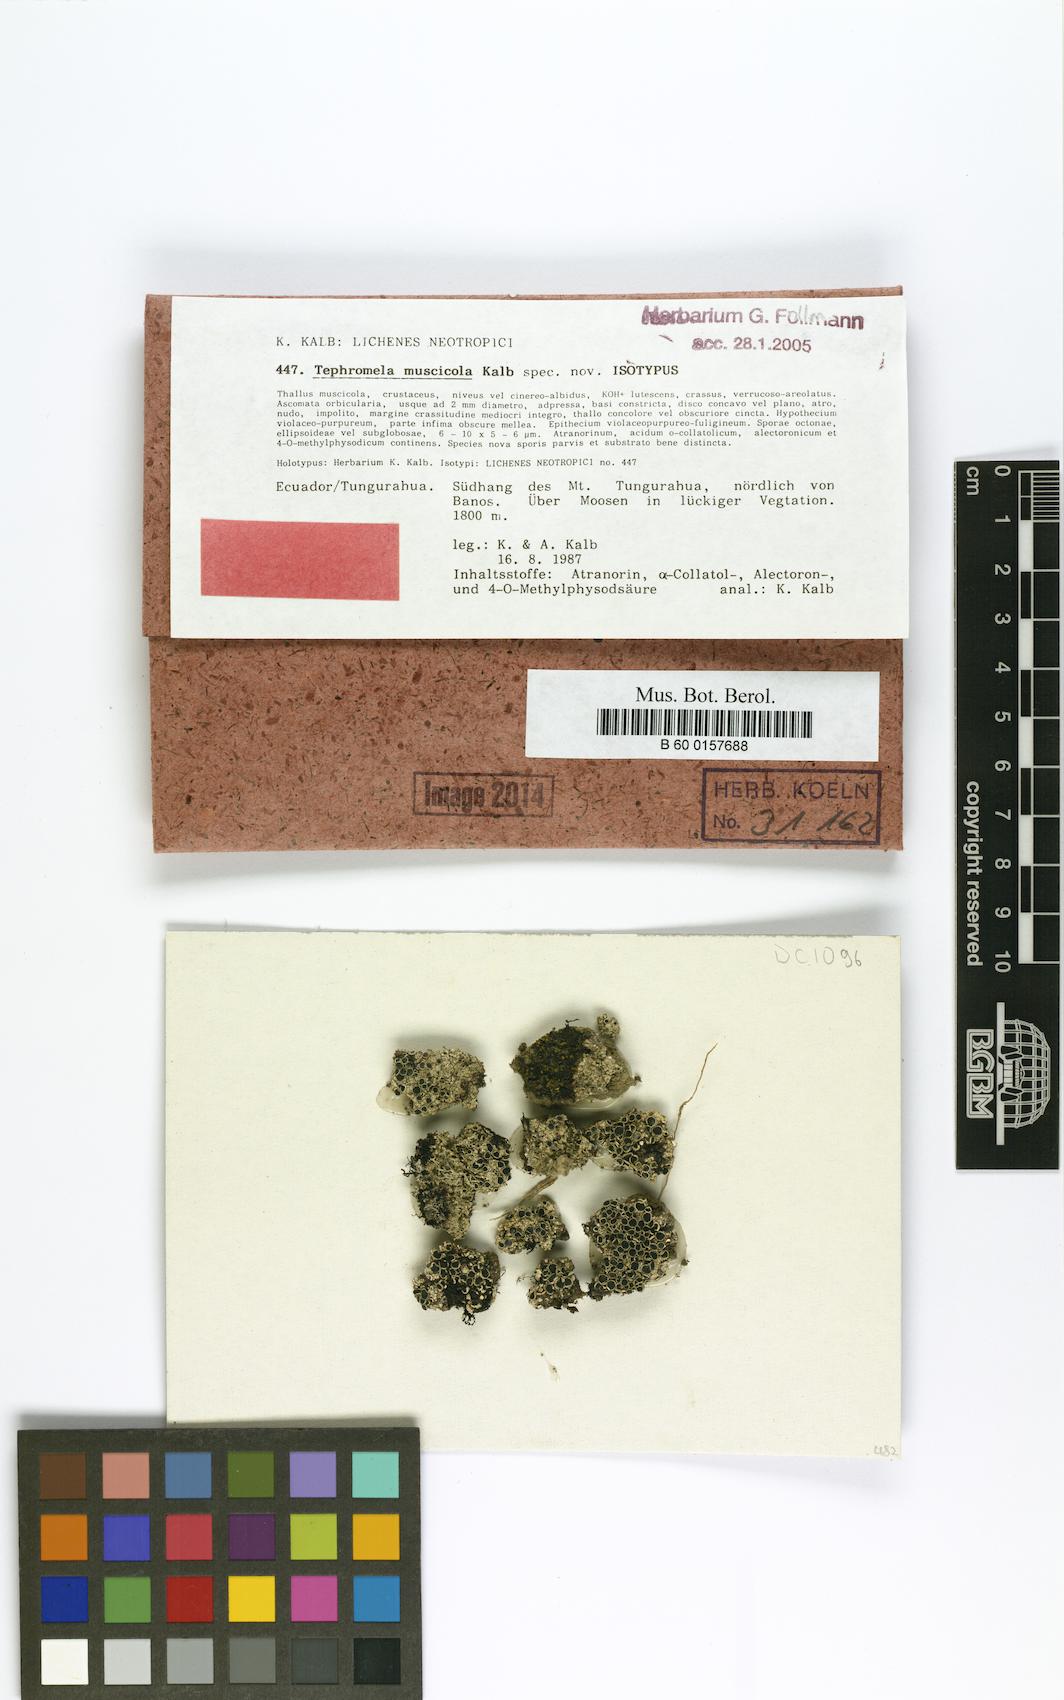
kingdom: Fungi
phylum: Ascomycota
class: Lecanoromycetes
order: Lecanorales
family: Tephromelataceae
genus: Tephromela
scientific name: Tephromela muscicola
